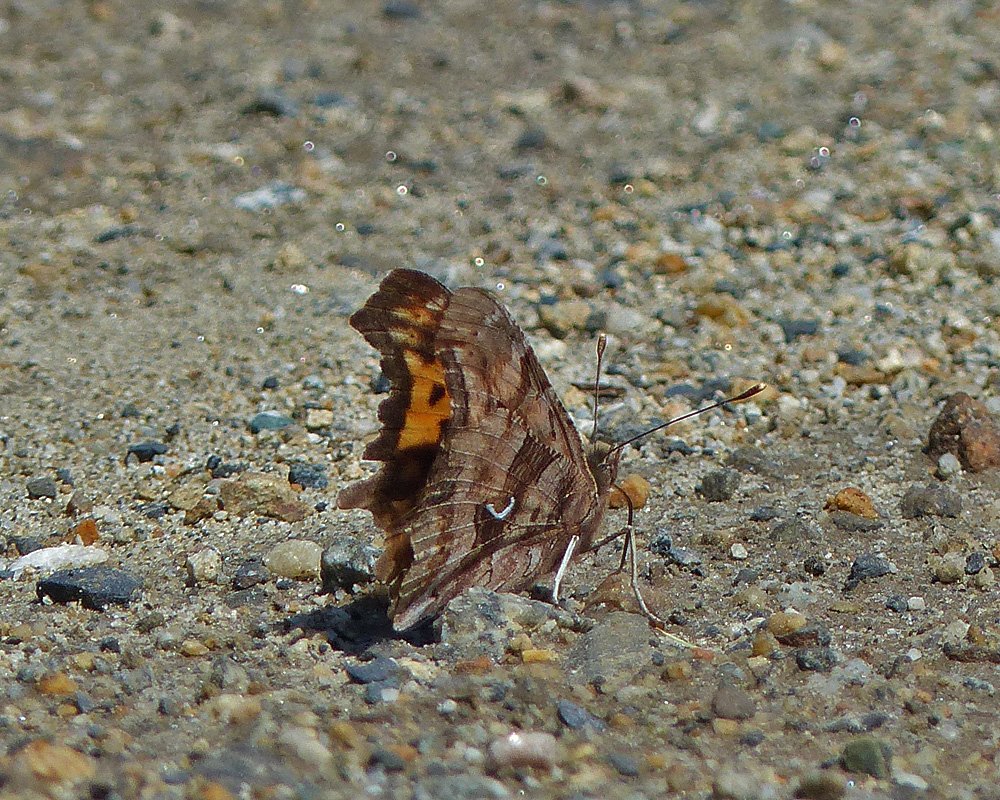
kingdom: Animalia
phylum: Arthropoda
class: Insecta
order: Lepidoptera
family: Nymphalidae
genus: Polygonia
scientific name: Polygonia satyrus
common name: Satyr Comma
